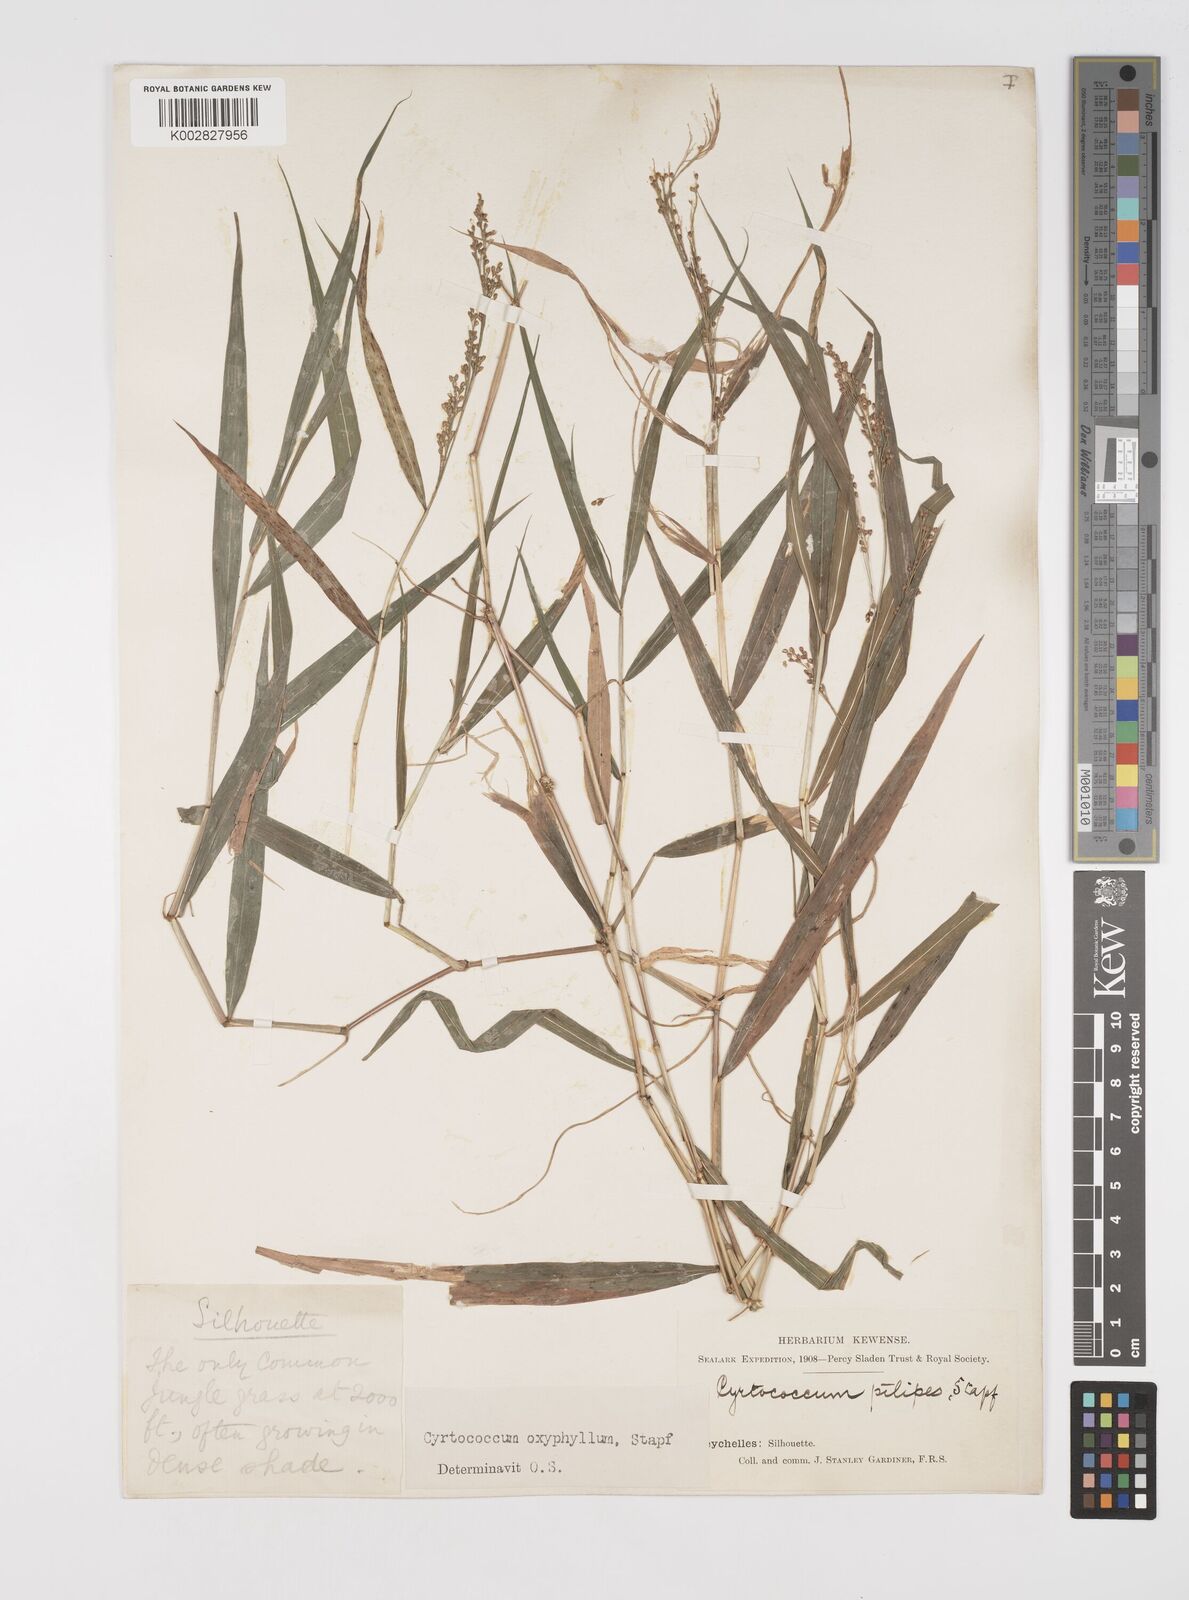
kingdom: Plantae
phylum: Tracheophyta
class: Liliopsida
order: Poales
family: Poaceae
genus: Cyrtococcum
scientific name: Cyrtococcum oxyphyllum
